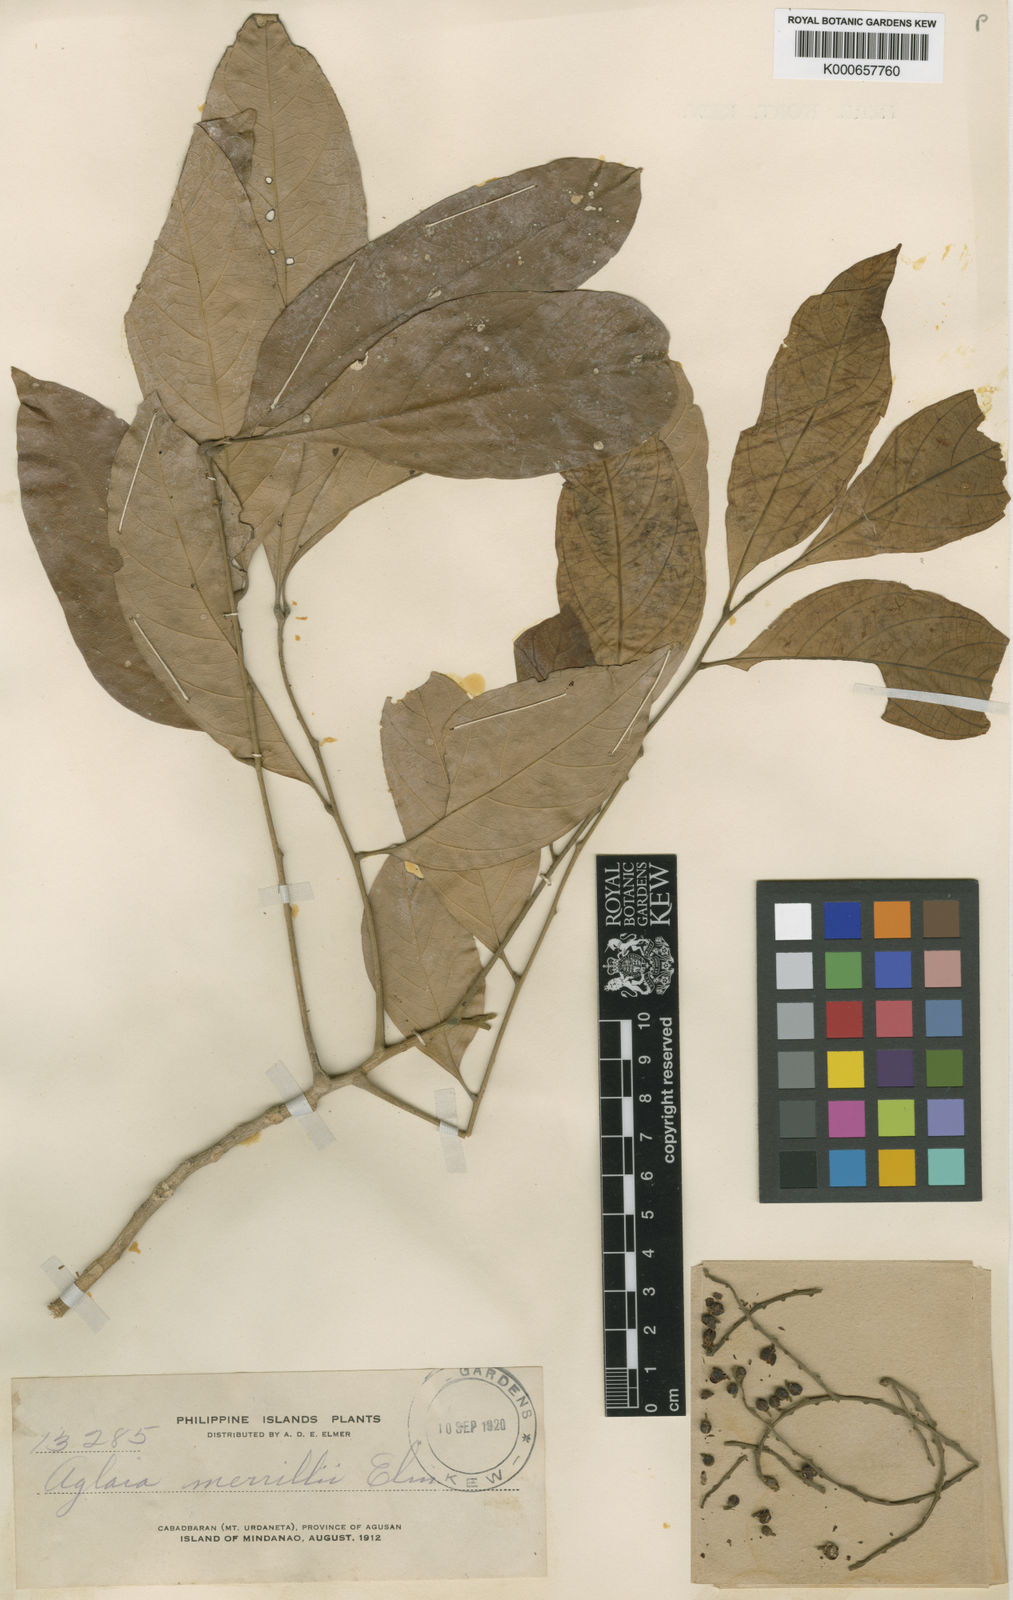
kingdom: Plantae
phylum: Tracheophyta
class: Magnoliopsida
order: Sapindales
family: Meliaceae
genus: Lansium
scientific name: Lansium
